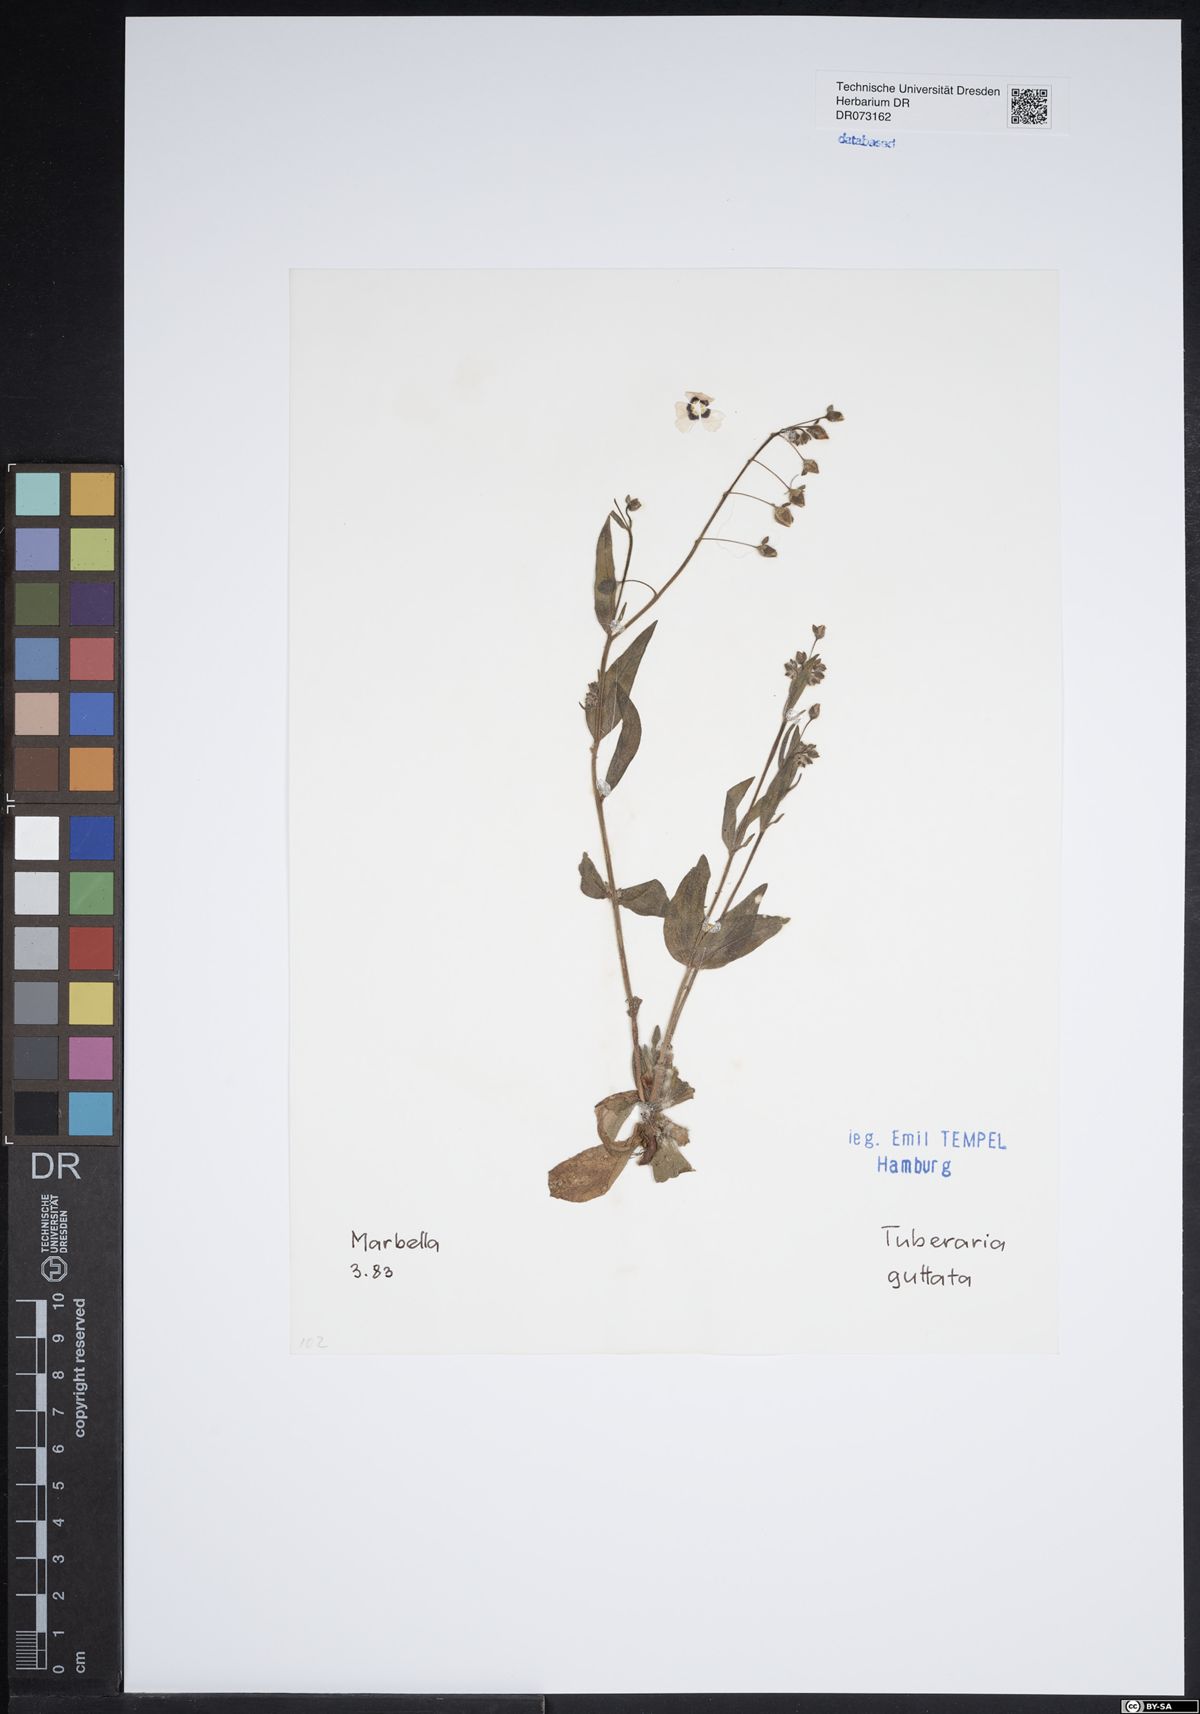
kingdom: Plantae
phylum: Tracheophyta
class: Magnoliopsida
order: Malvales
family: Cistaceae
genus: Tuberaria
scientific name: Tuberaria guttata
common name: Spotted rock-rose
